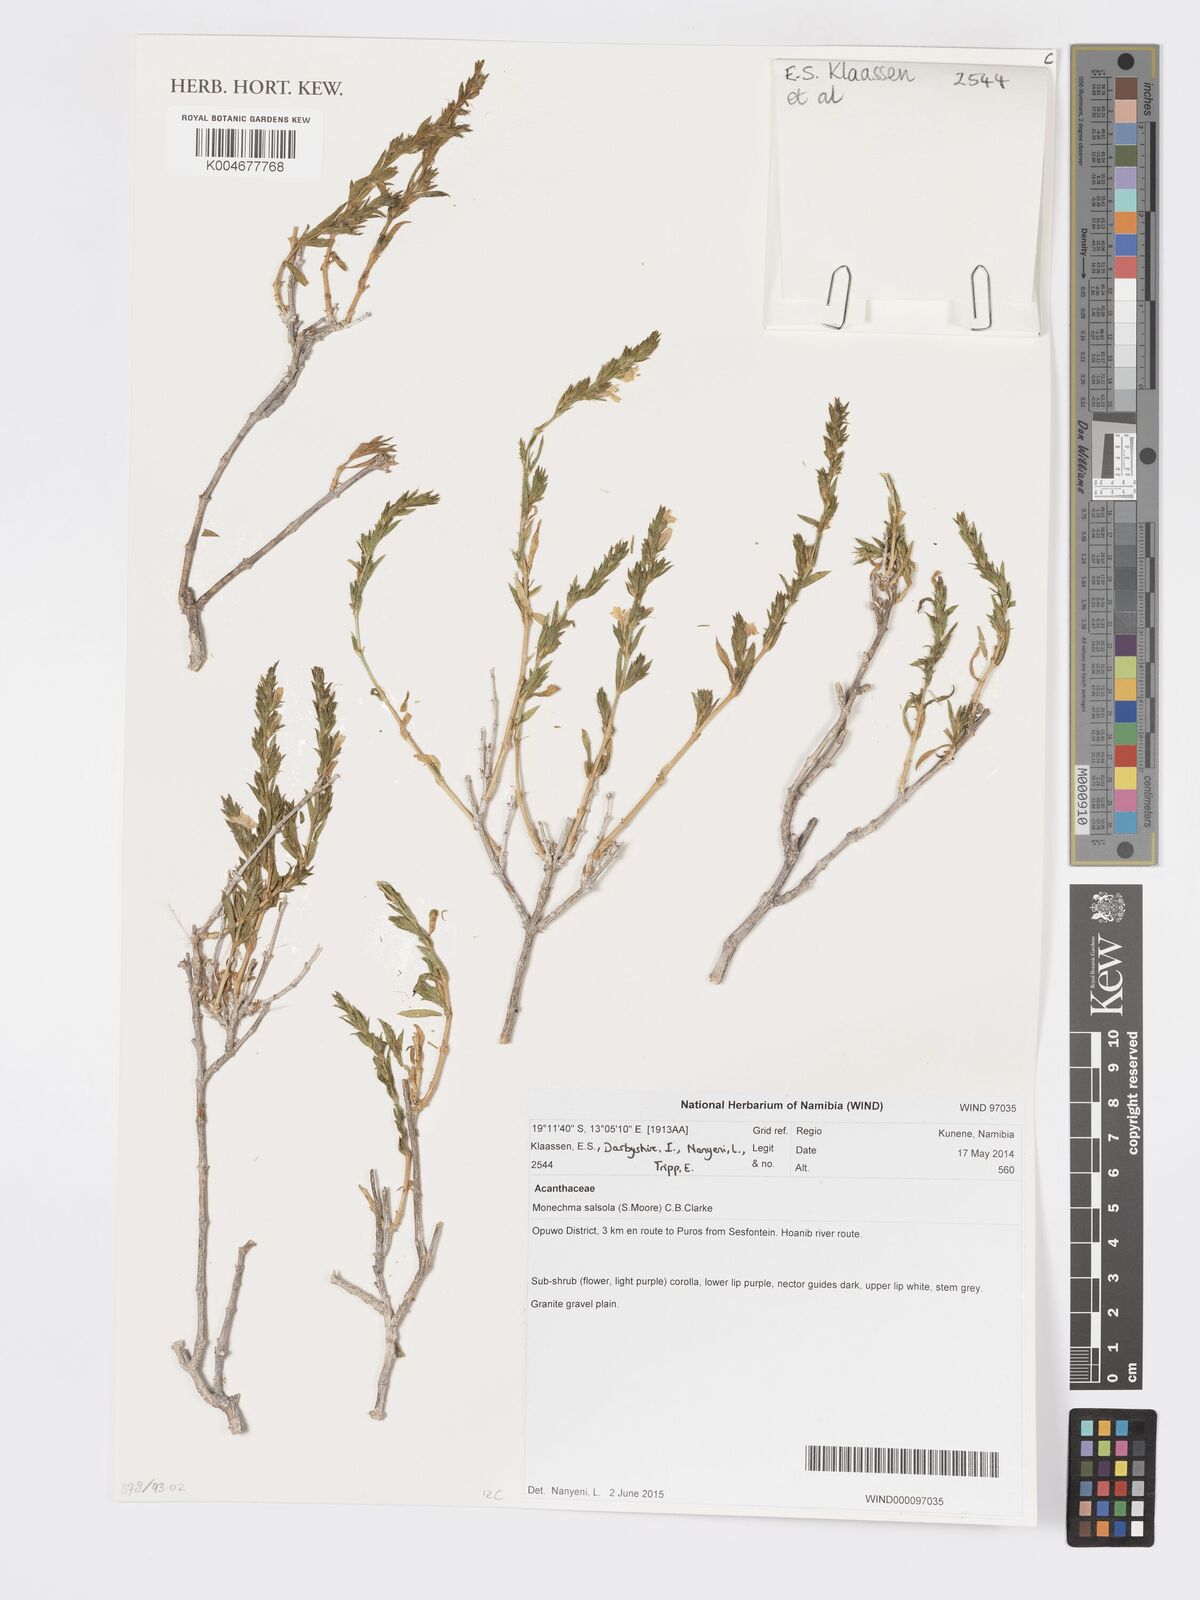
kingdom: Plantae
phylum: Tracheophyta
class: Magnoliopsida
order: Lamiales
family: Acanthaceae
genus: Pogonospermum
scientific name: Pogonospermum
